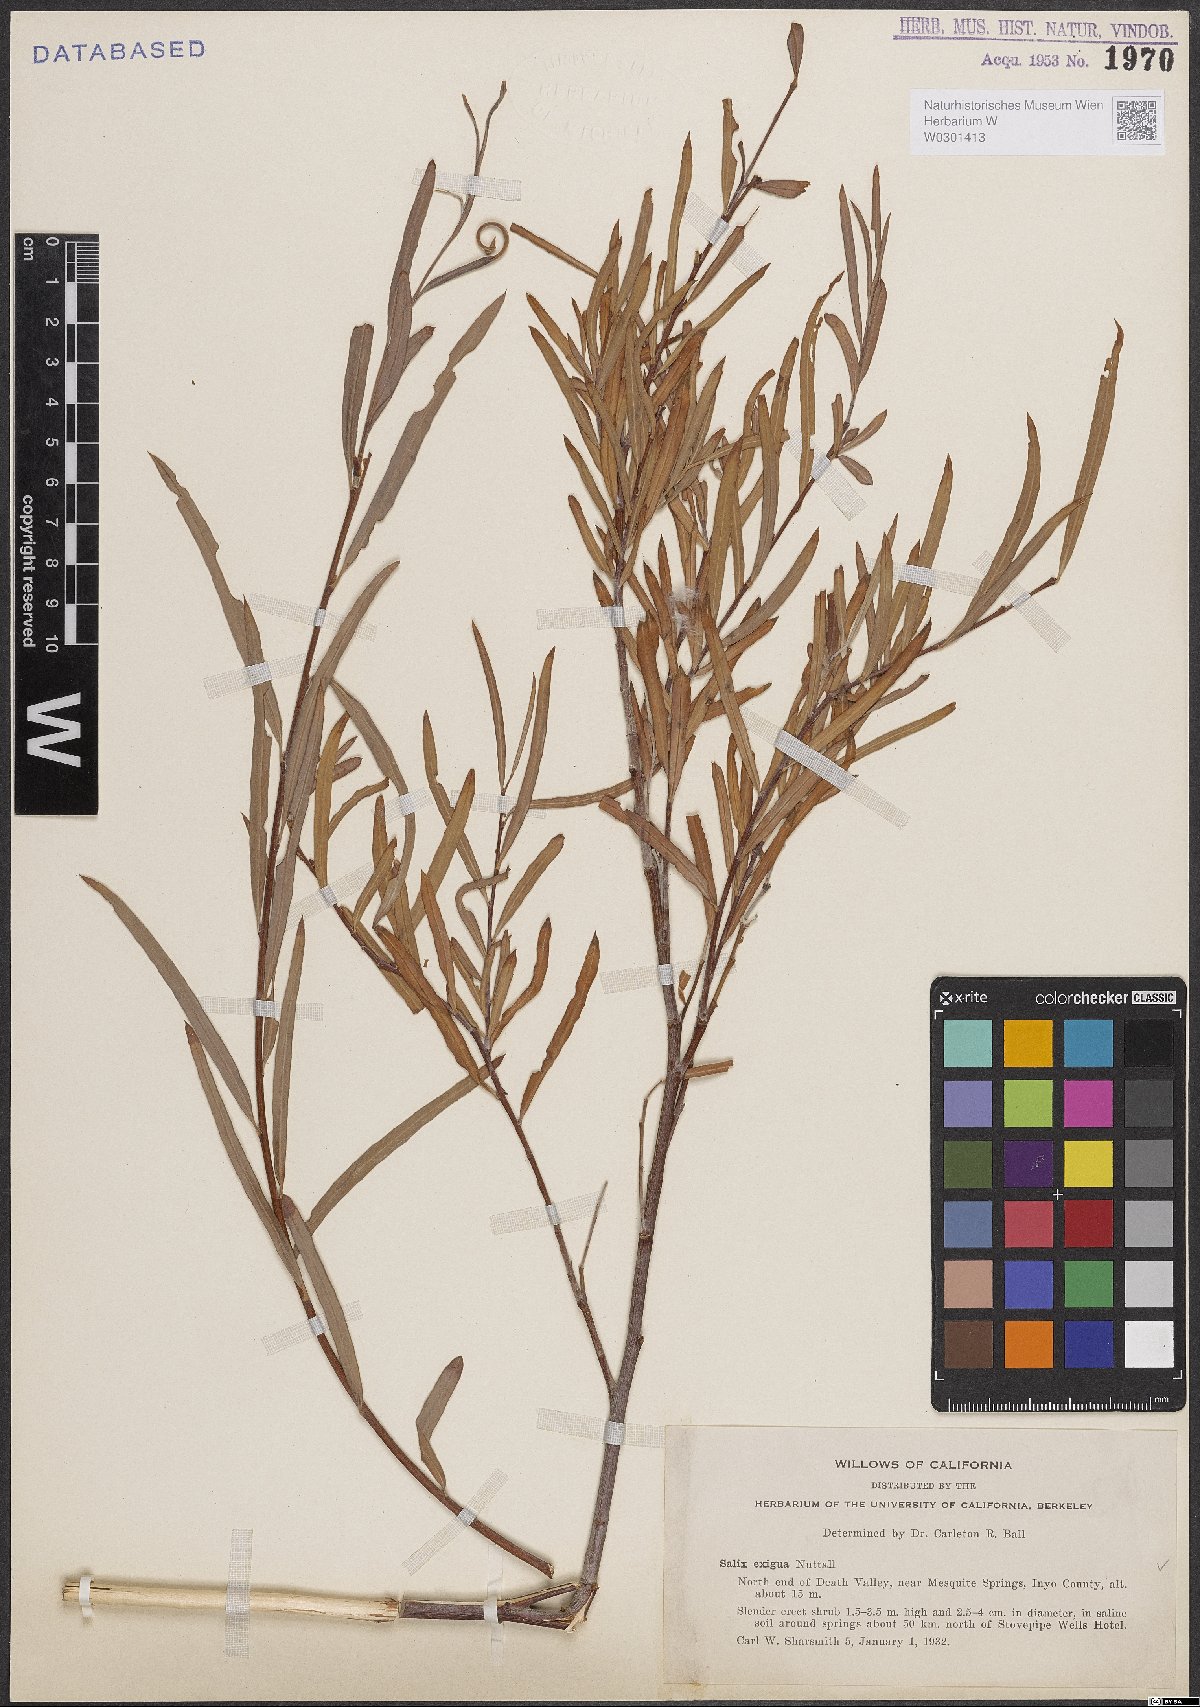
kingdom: Plantae
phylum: Tracheophyta
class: Magnoliopsida
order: Malpighiales
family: Salicaceae
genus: Salix
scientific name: Salix exigua
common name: Coyote willow
